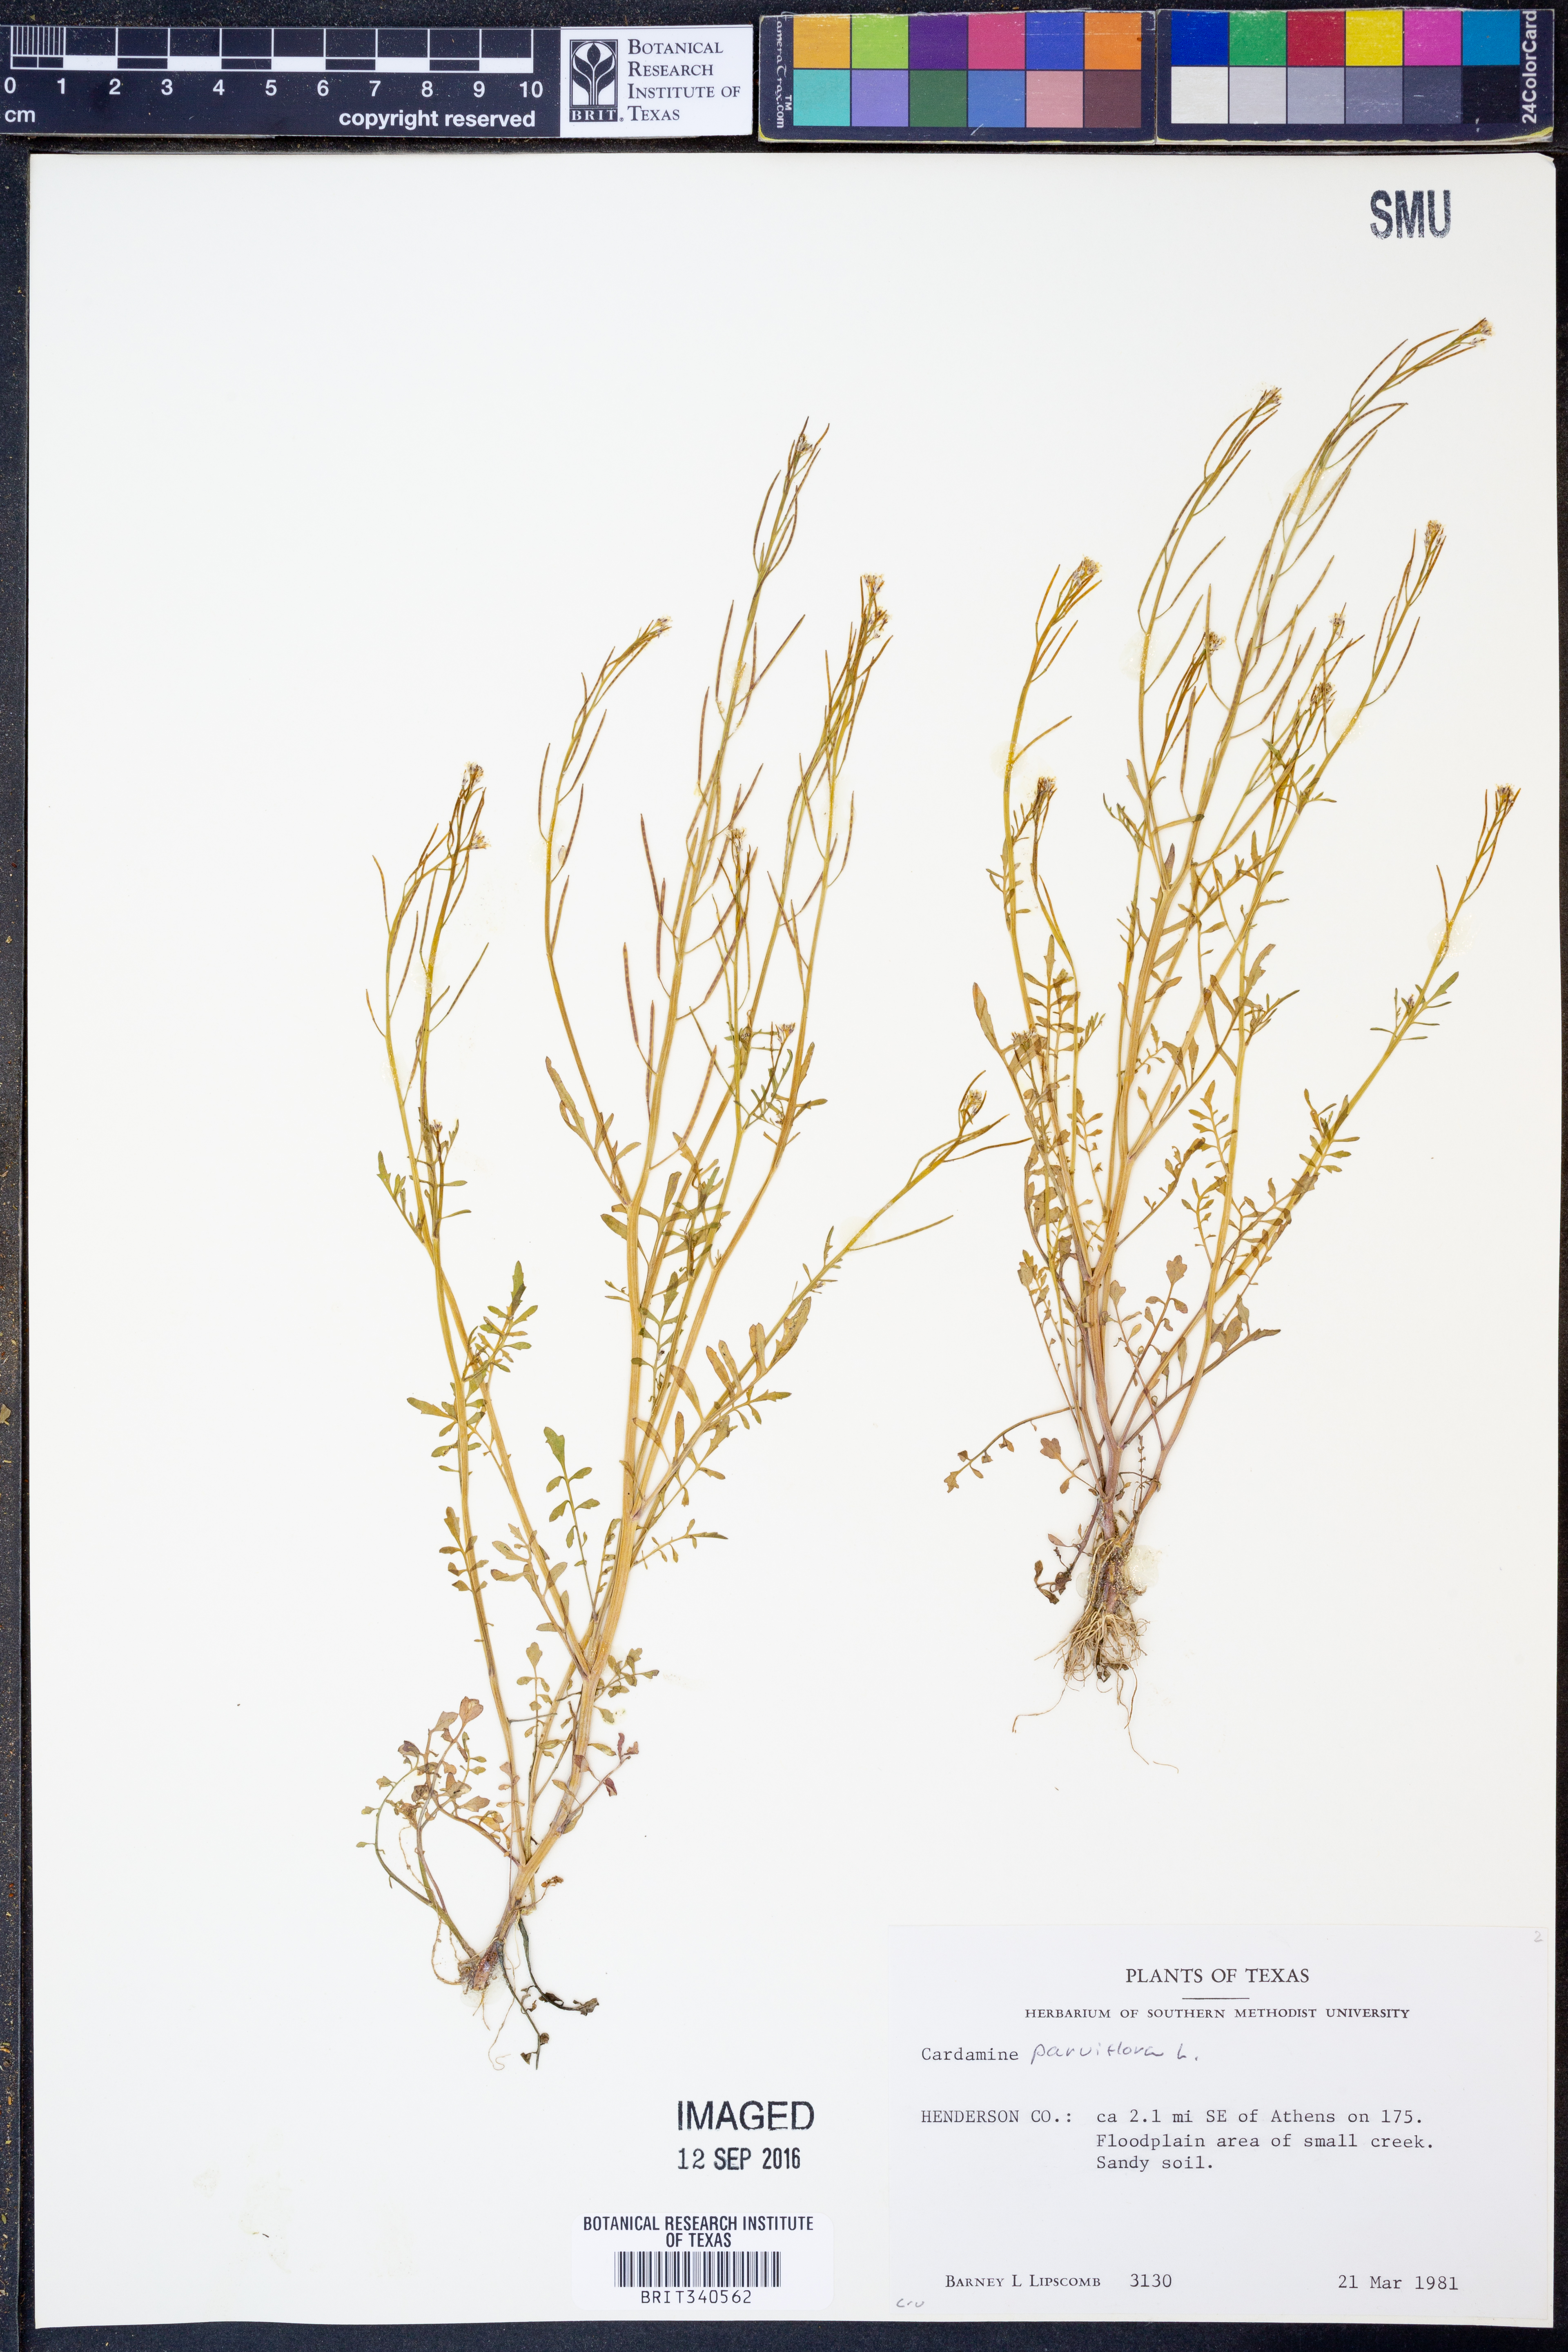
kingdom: Plantae
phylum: Tracheophyta
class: Magnoliopsida
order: Brassicales
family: Brassicaceae
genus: Cardamine
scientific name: Cardamine parviflora
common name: Sand bittercress
